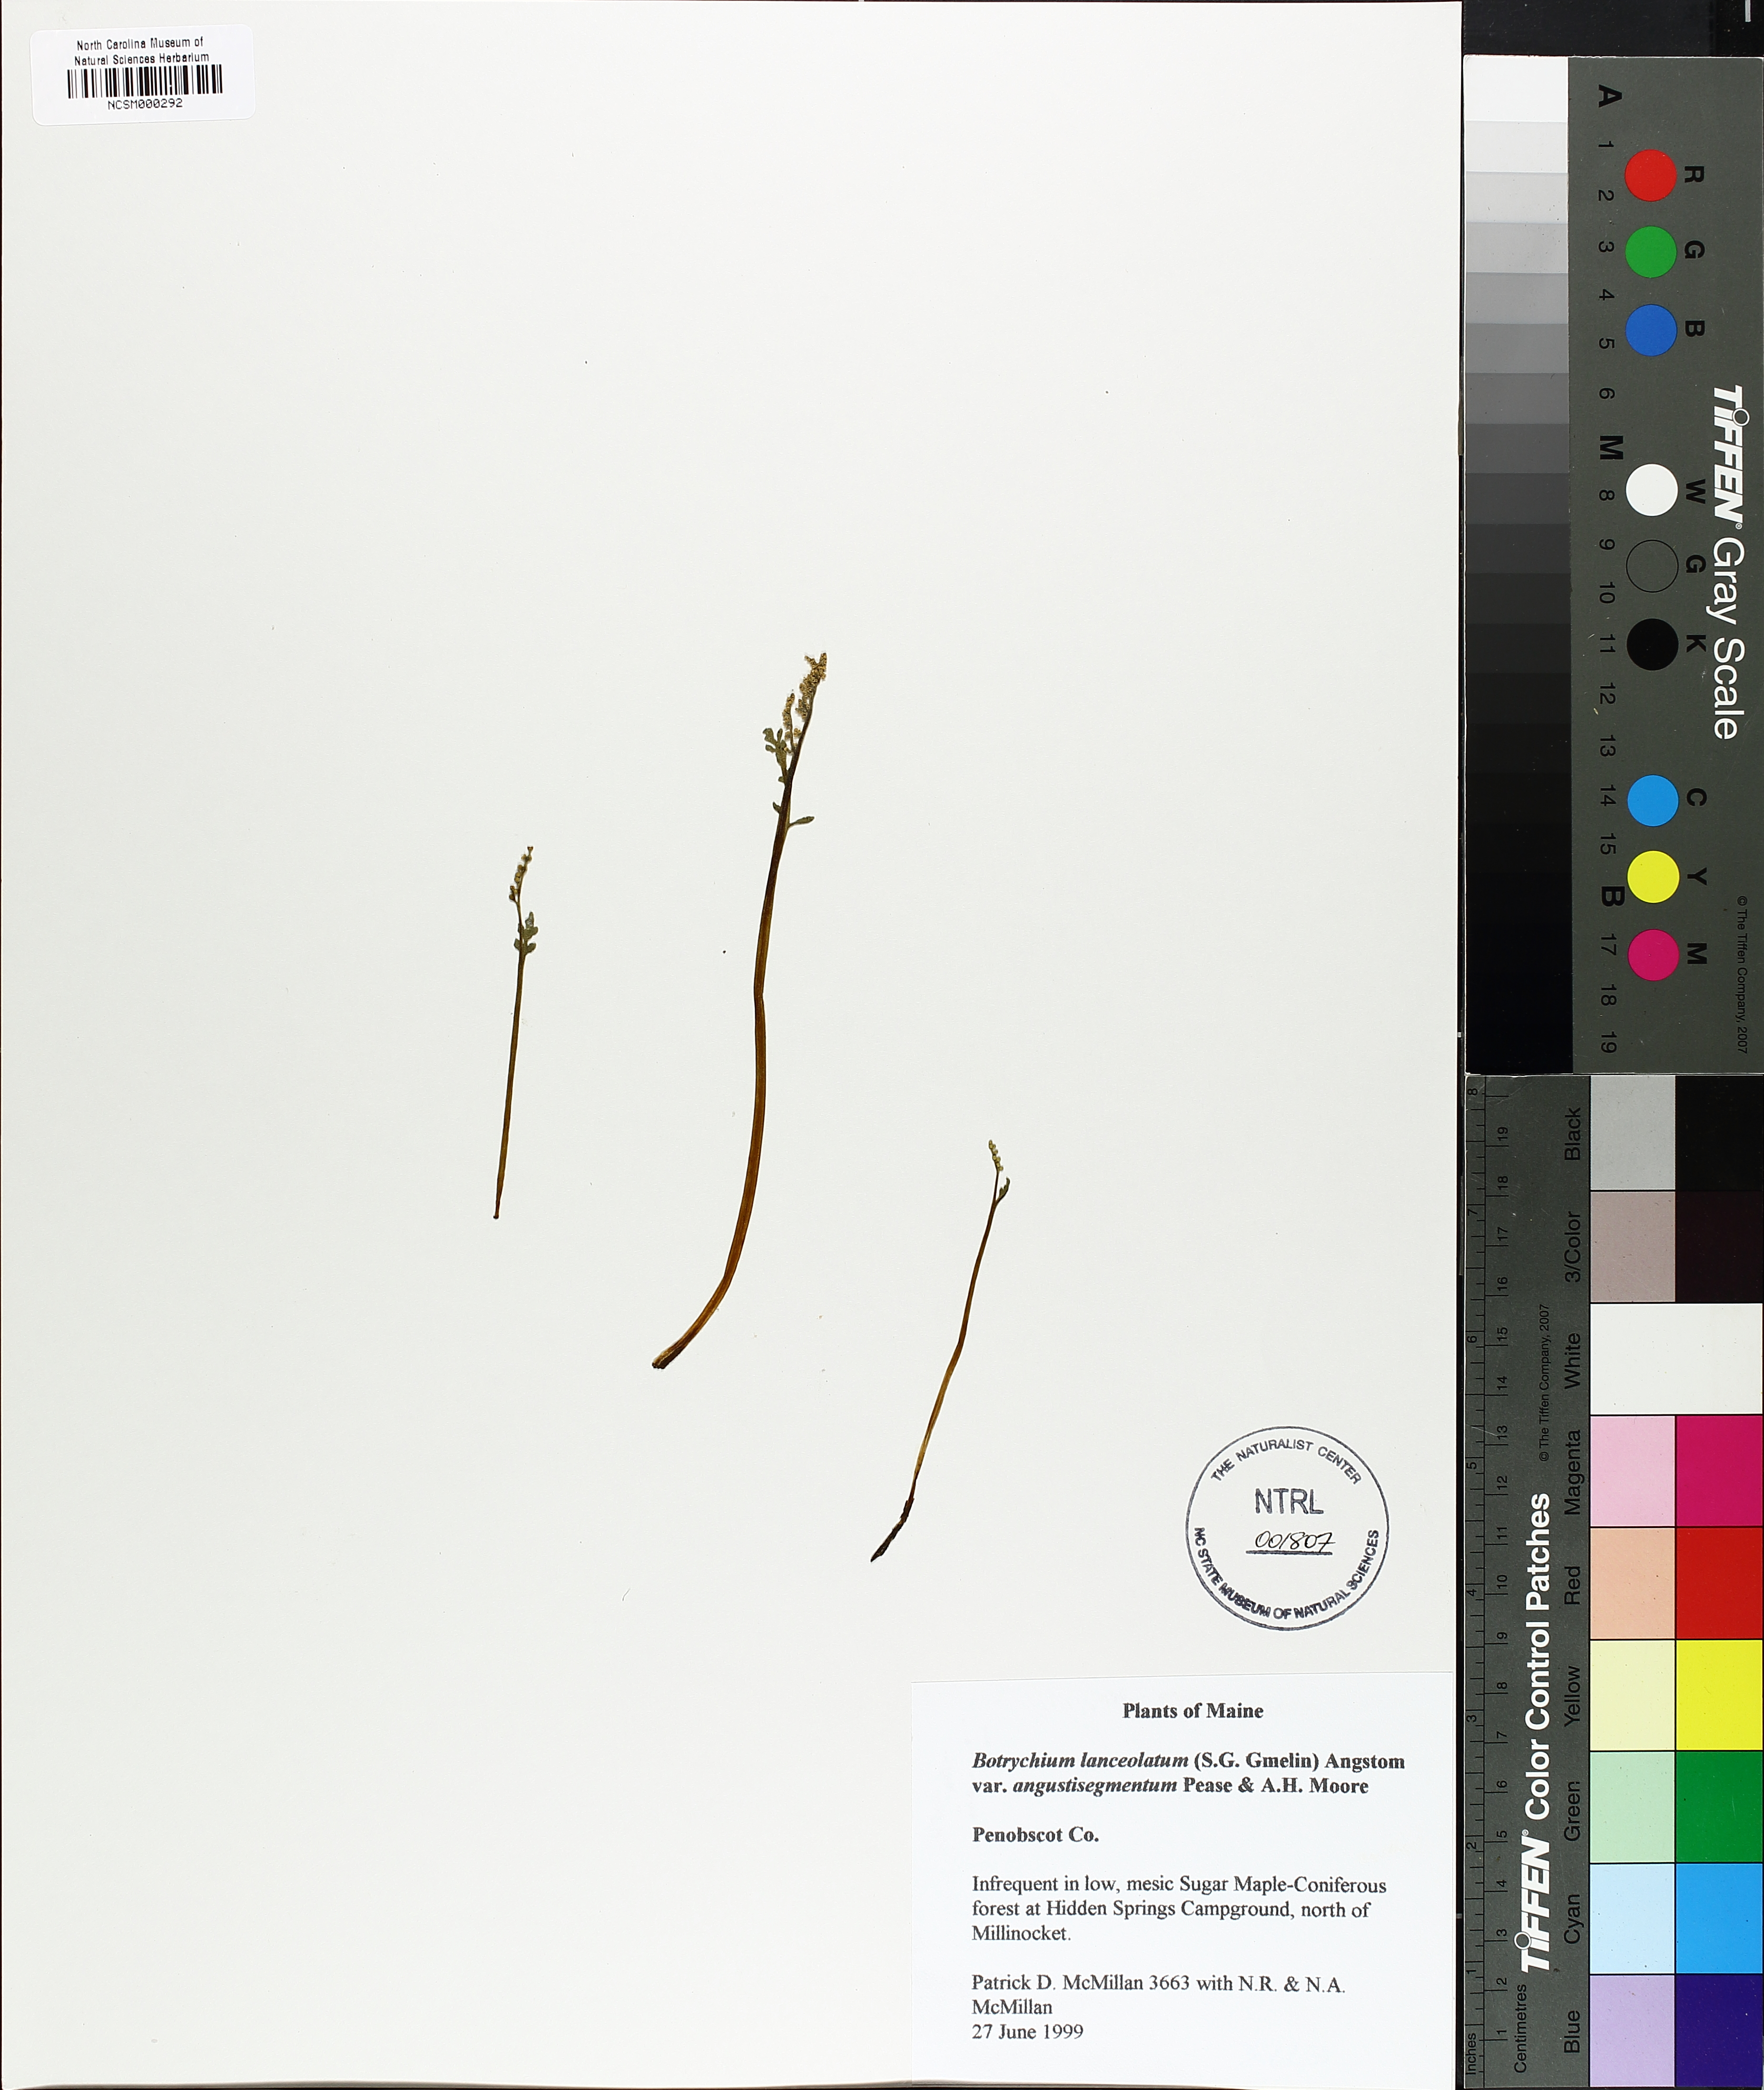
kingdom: Plantae
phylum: Tracheophyta
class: Polypodiopsida
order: Ophioglossales
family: Ophioglossaceae
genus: Botrychium
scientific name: Botrychium angustisegmentum
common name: Narrow triangle moonwort
